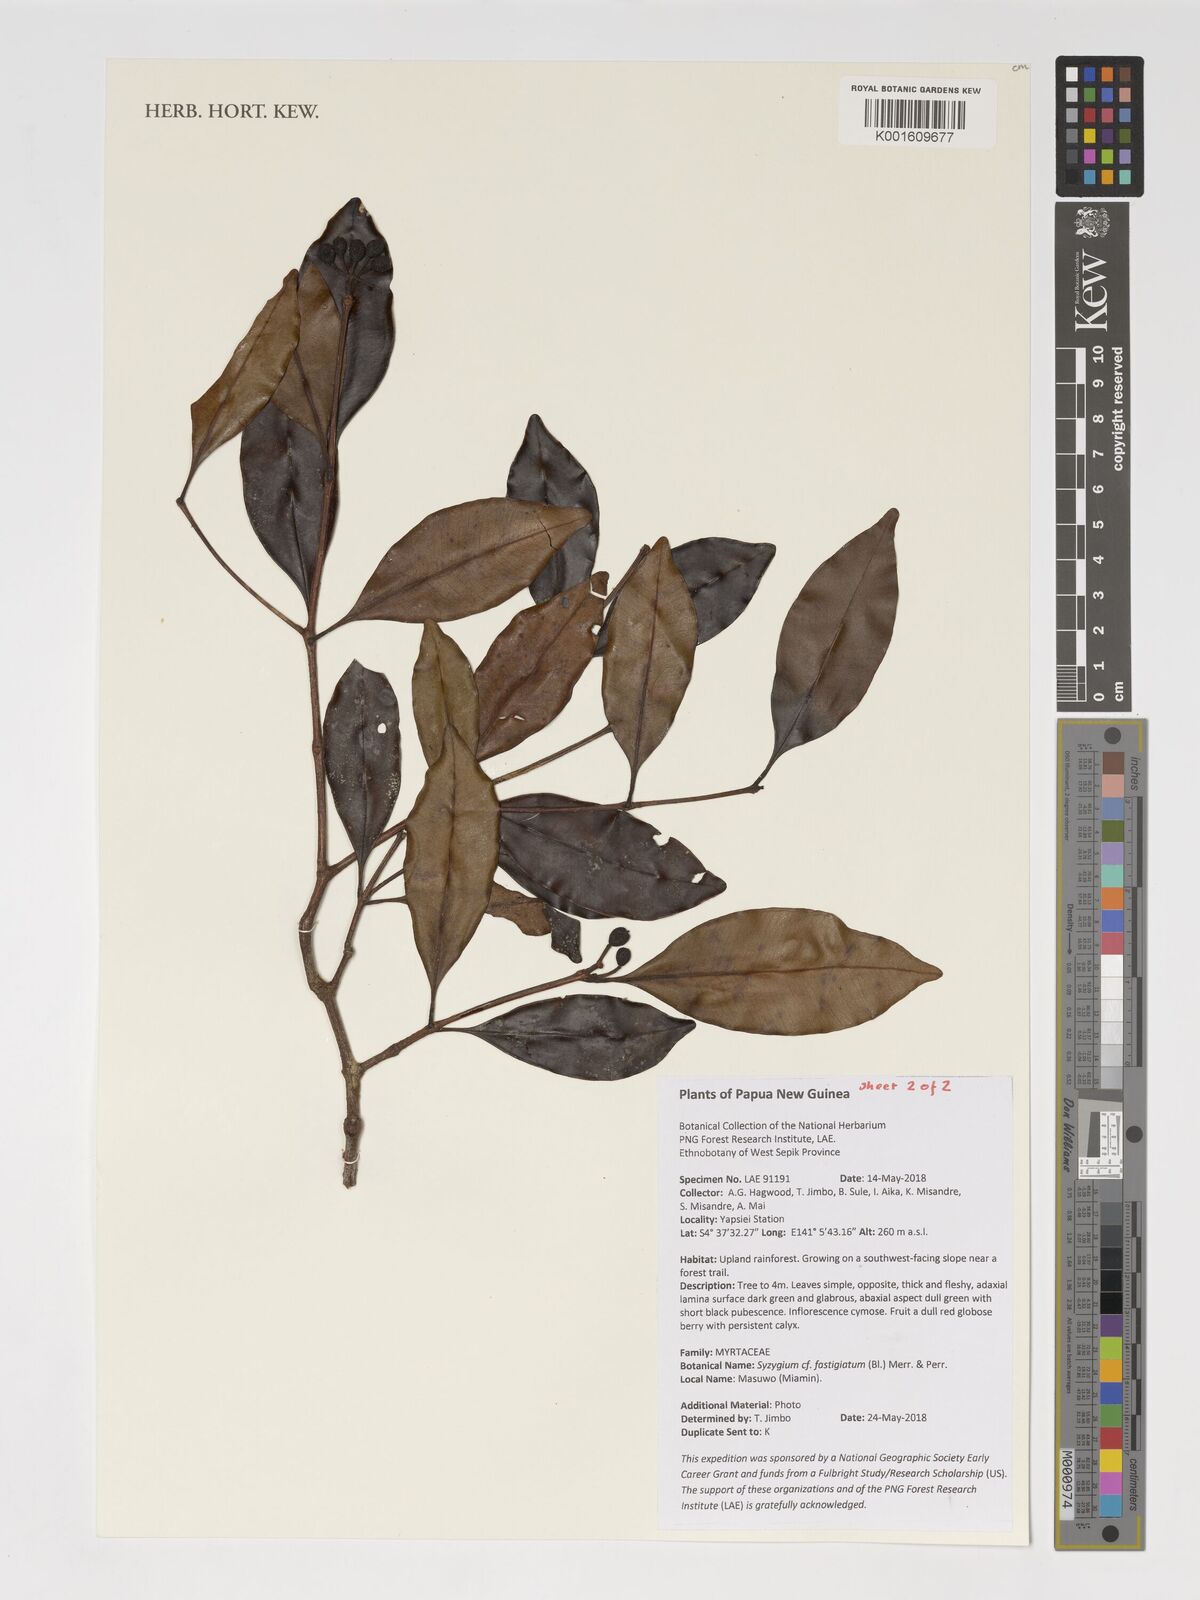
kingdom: Plantae
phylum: Tracheophyta
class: Magnoliopsida
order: Myrtales
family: Myrtaceae
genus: Syzygium
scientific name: Syzygium fastigiatum
